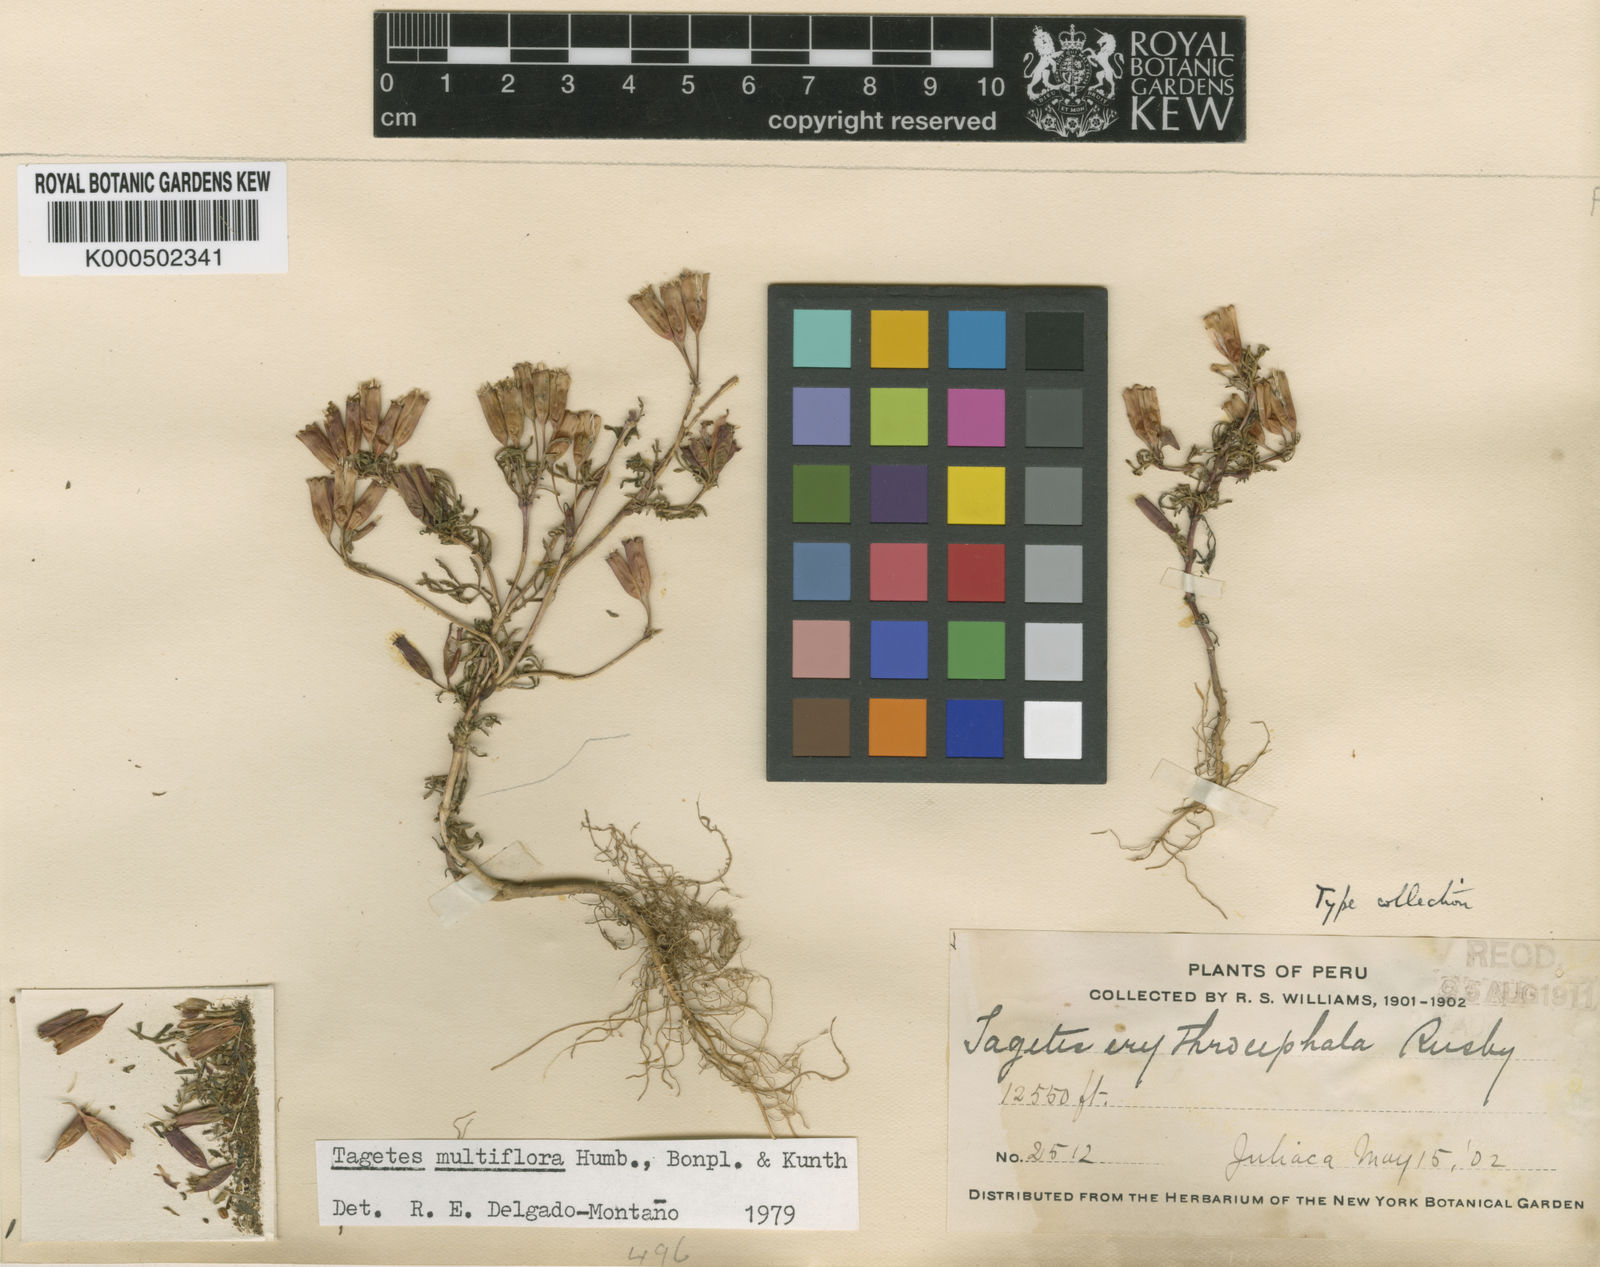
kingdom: Plantae
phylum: Tracheophyta
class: Magnoliopsida
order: Asterales
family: Asteraceae
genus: Tagetes
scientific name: Tagetes multiflora
